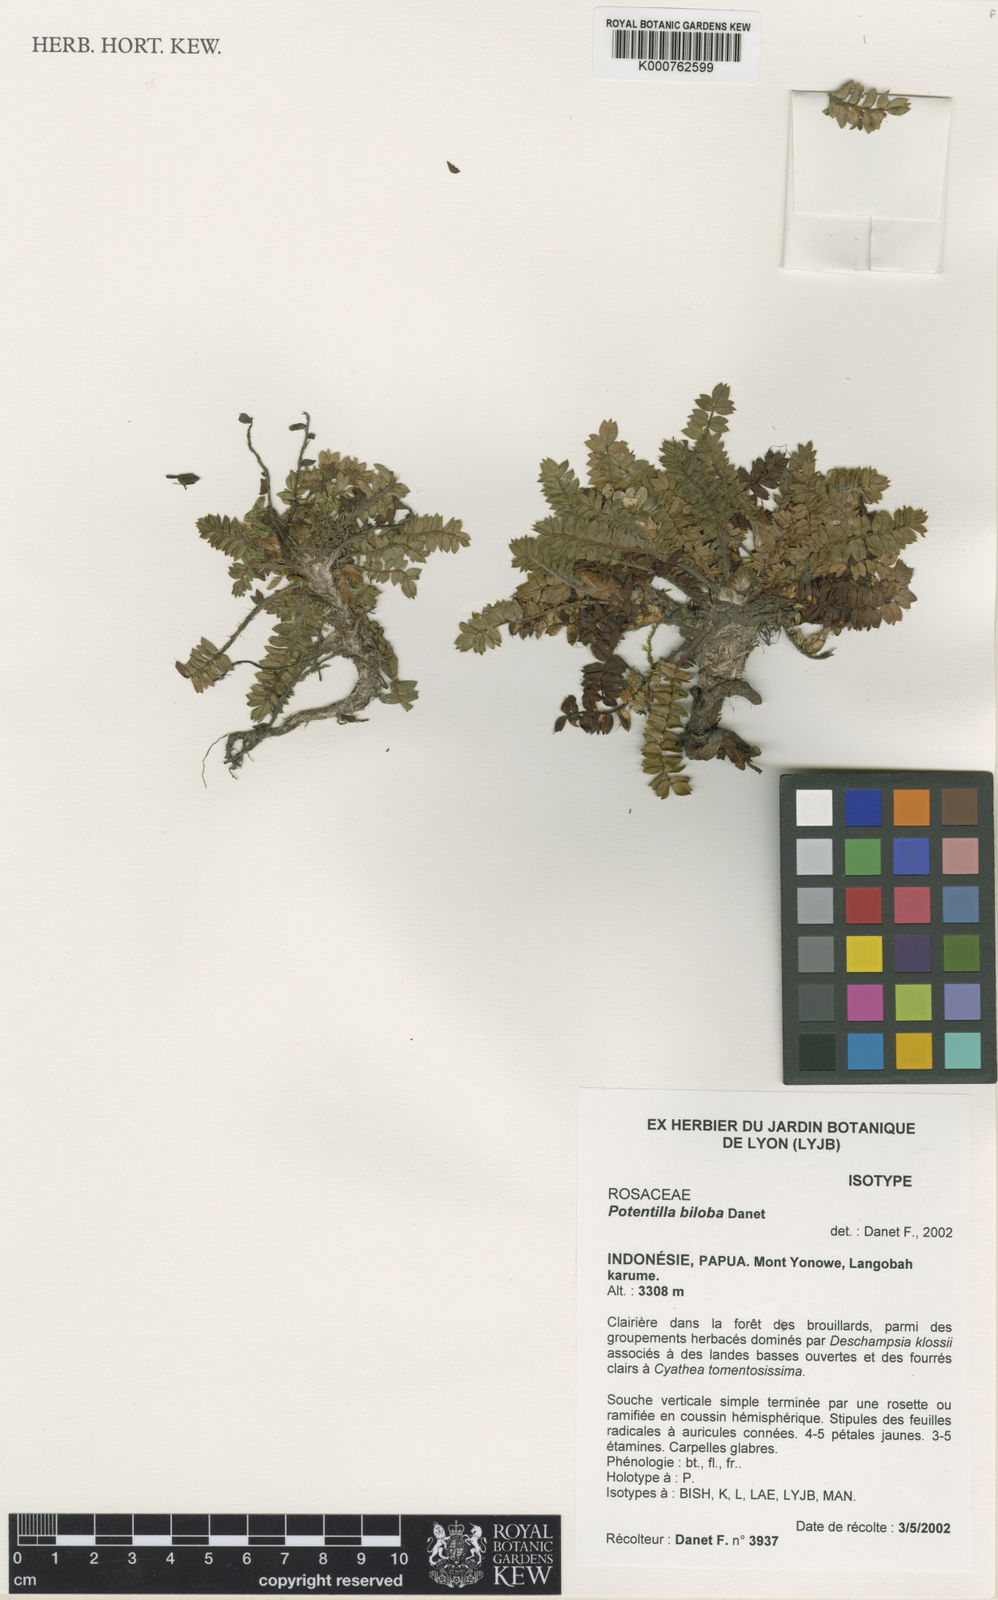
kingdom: Plantae
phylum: Tracheophyta
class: Magnoliopsida
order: Rosales
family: Rosaceae
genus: Argentina
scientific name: Argentina biloba
